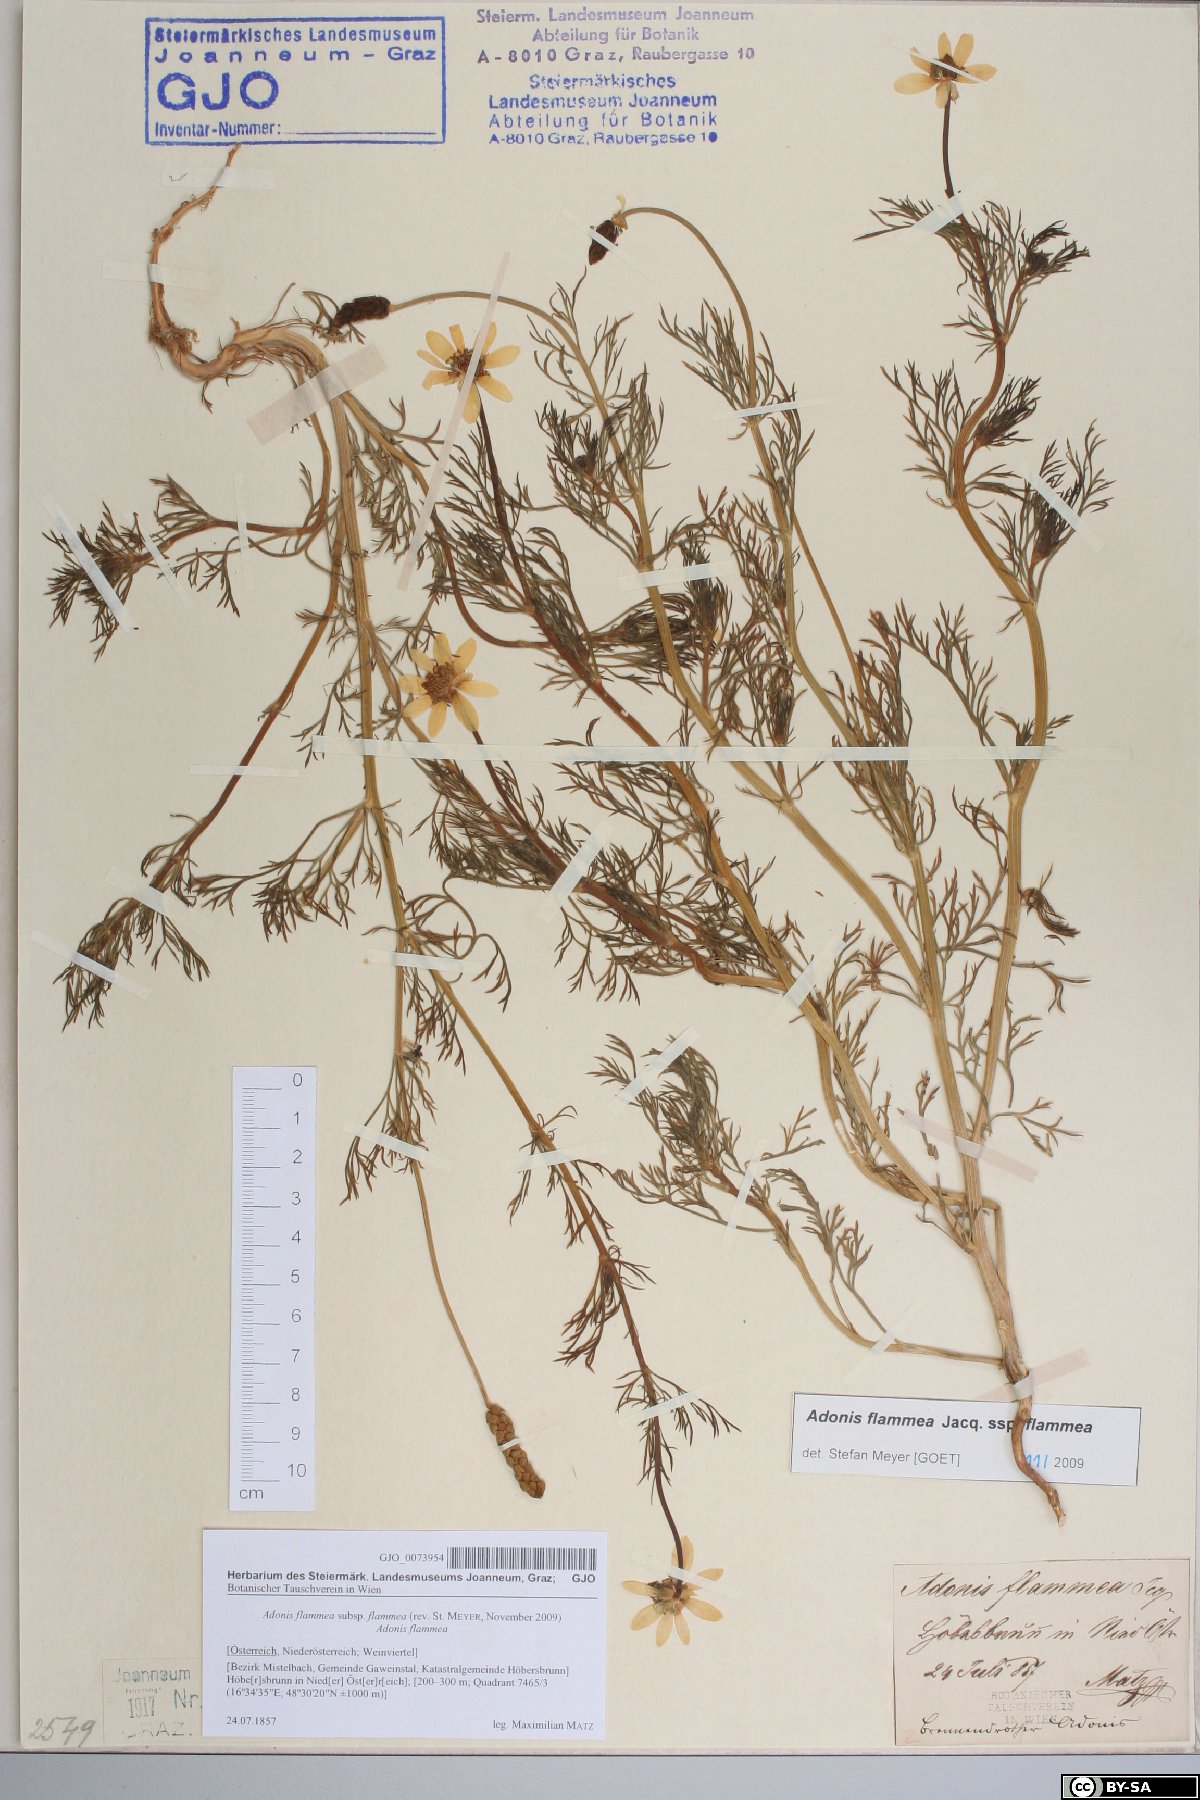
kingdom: Plantae
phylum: Tracheophyta
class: Magnoliopsida
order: Ranunculales
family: Ranunculaceae
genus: Adonis
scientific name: Adonis flammea
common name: Large pheasant's-eye
